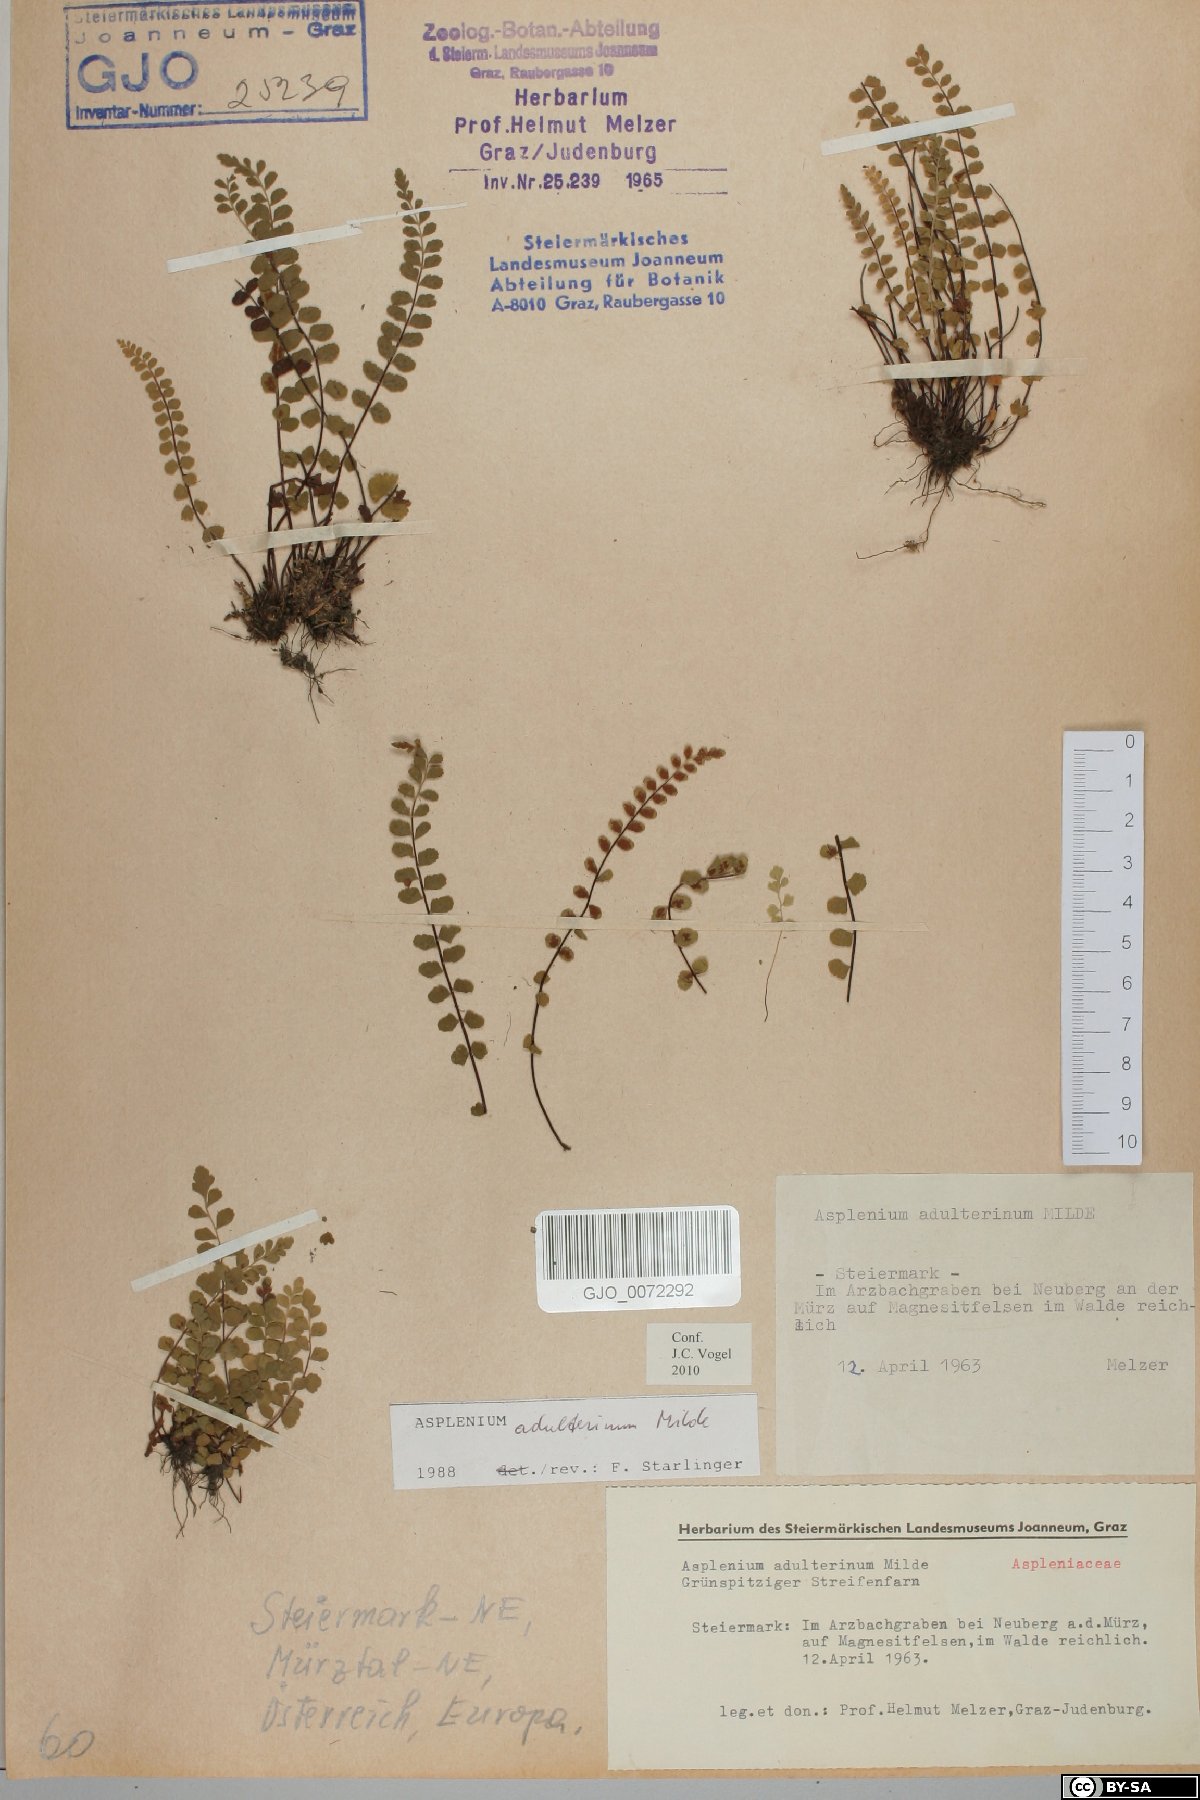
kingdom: Plantae
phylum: Tracheophyta
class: Polypodiopsida
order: Polypodiales
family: Aspleniaceae
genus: Asplenium
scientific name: Asplenium adulterinum
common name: Adulterated spleenwort
